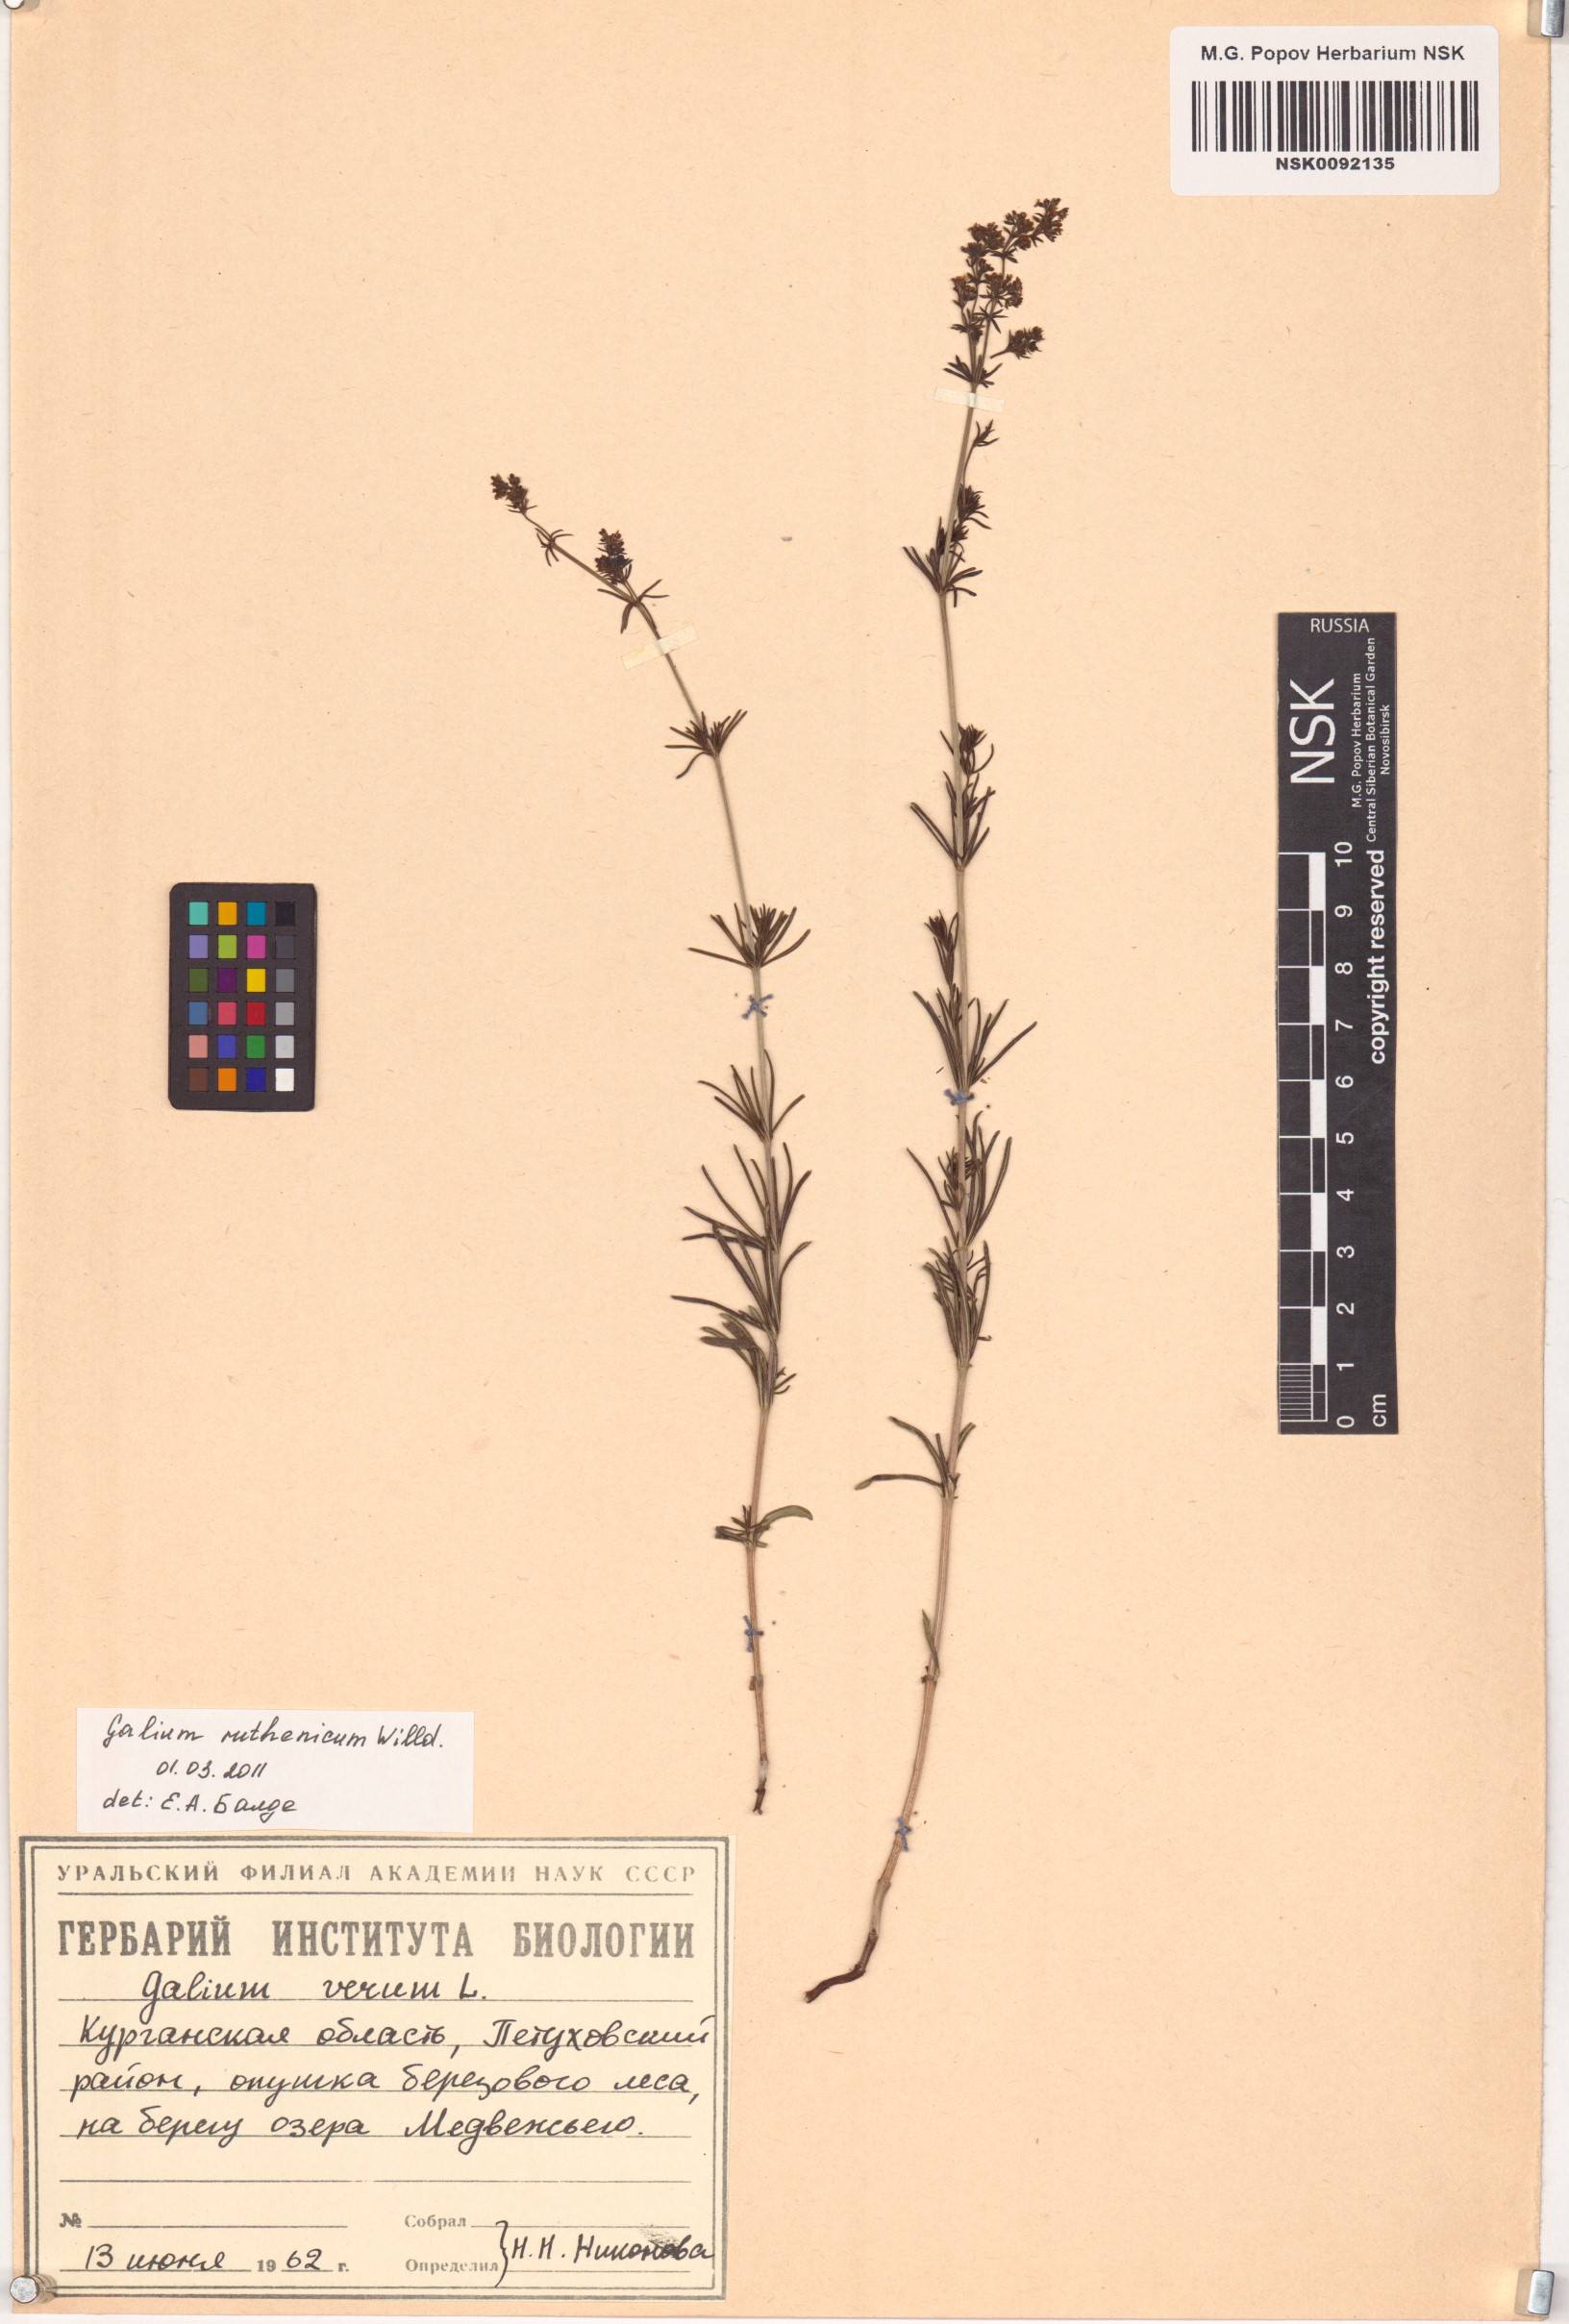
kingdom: Plantae
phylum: Tracheophyta
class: Magnoliopsida
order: Gentianales
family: Rubiaceae
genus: Galium
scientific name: Galium verum
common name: Lady's bedstraw
